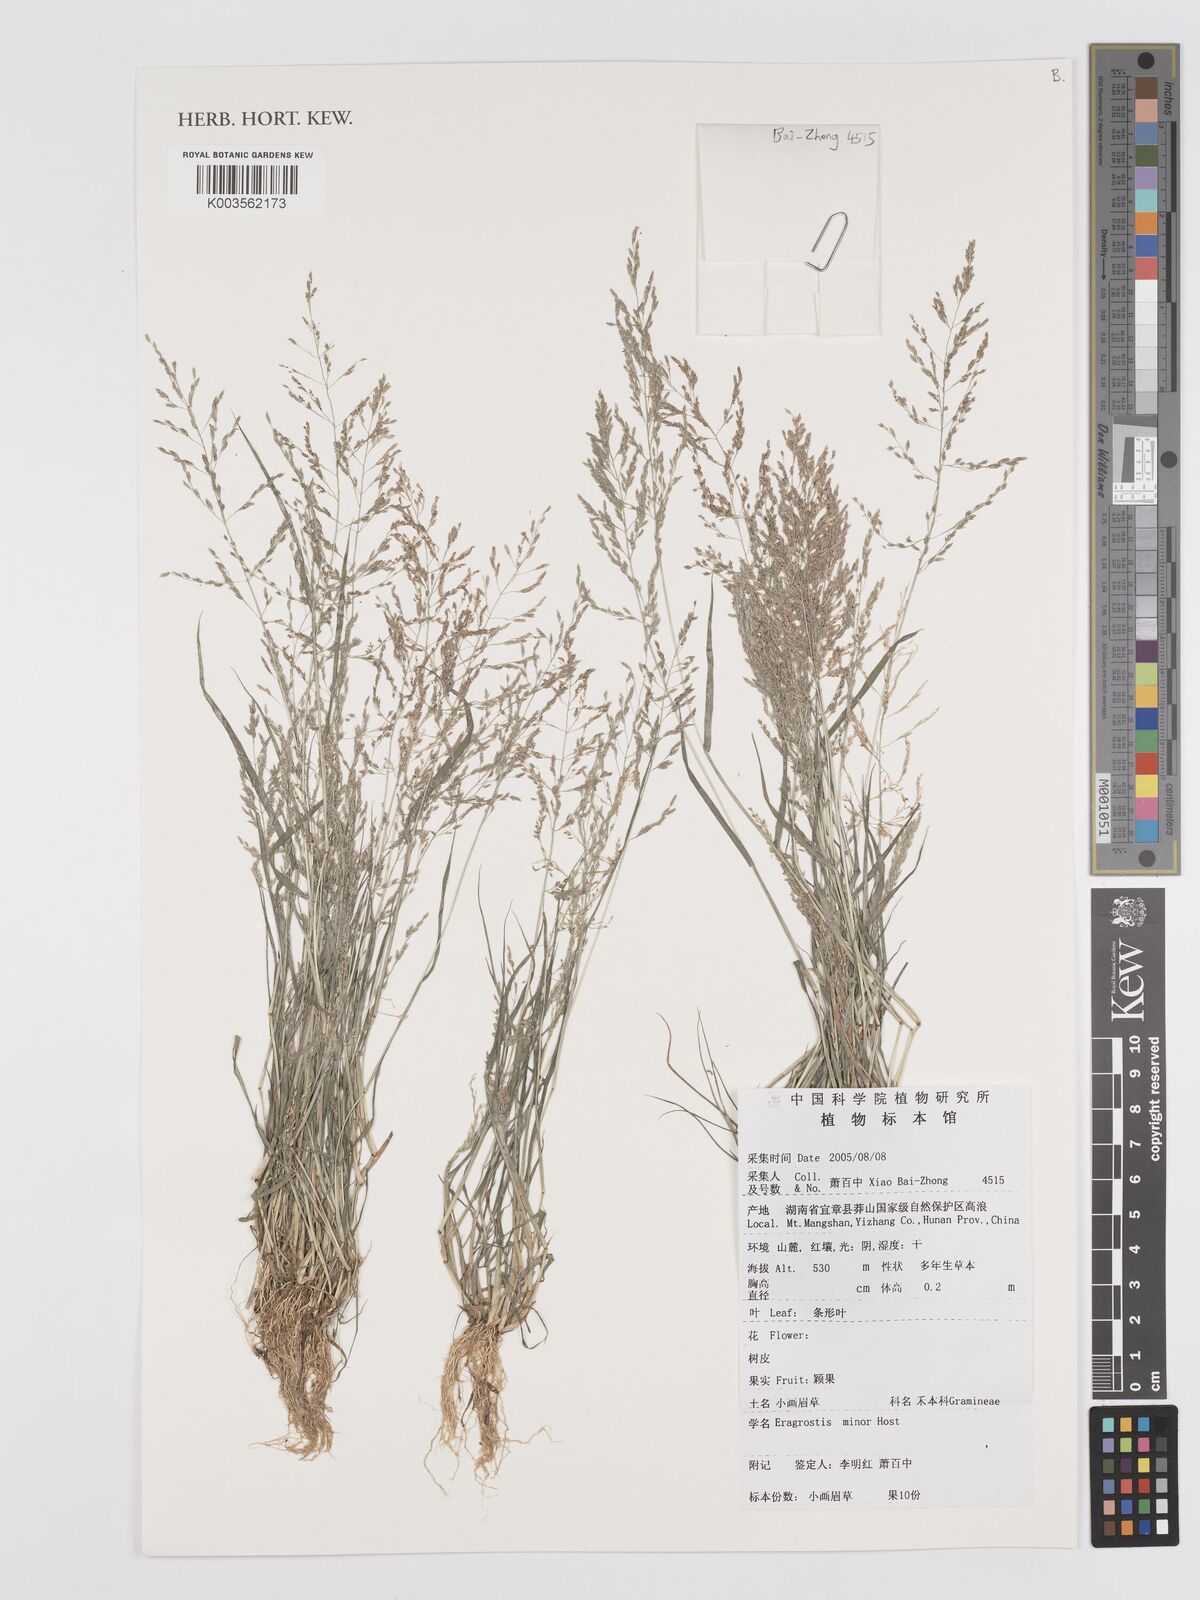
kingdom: Plantae
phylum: Tracheophyta
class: Liliopsida
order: Poales
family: Poaceae
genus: Eragrostis
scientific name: Eragrostis minor
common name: Small love-grass
